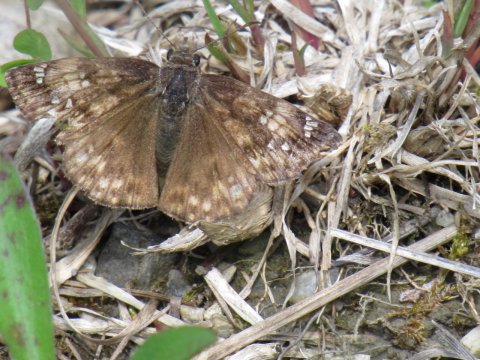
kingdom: Animalia
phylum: Arthropoda
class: Insecta
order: Lepidoptera
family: Hesperiidae
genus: Gesta
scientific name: Gesta
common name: Juvenal's Duskywing
